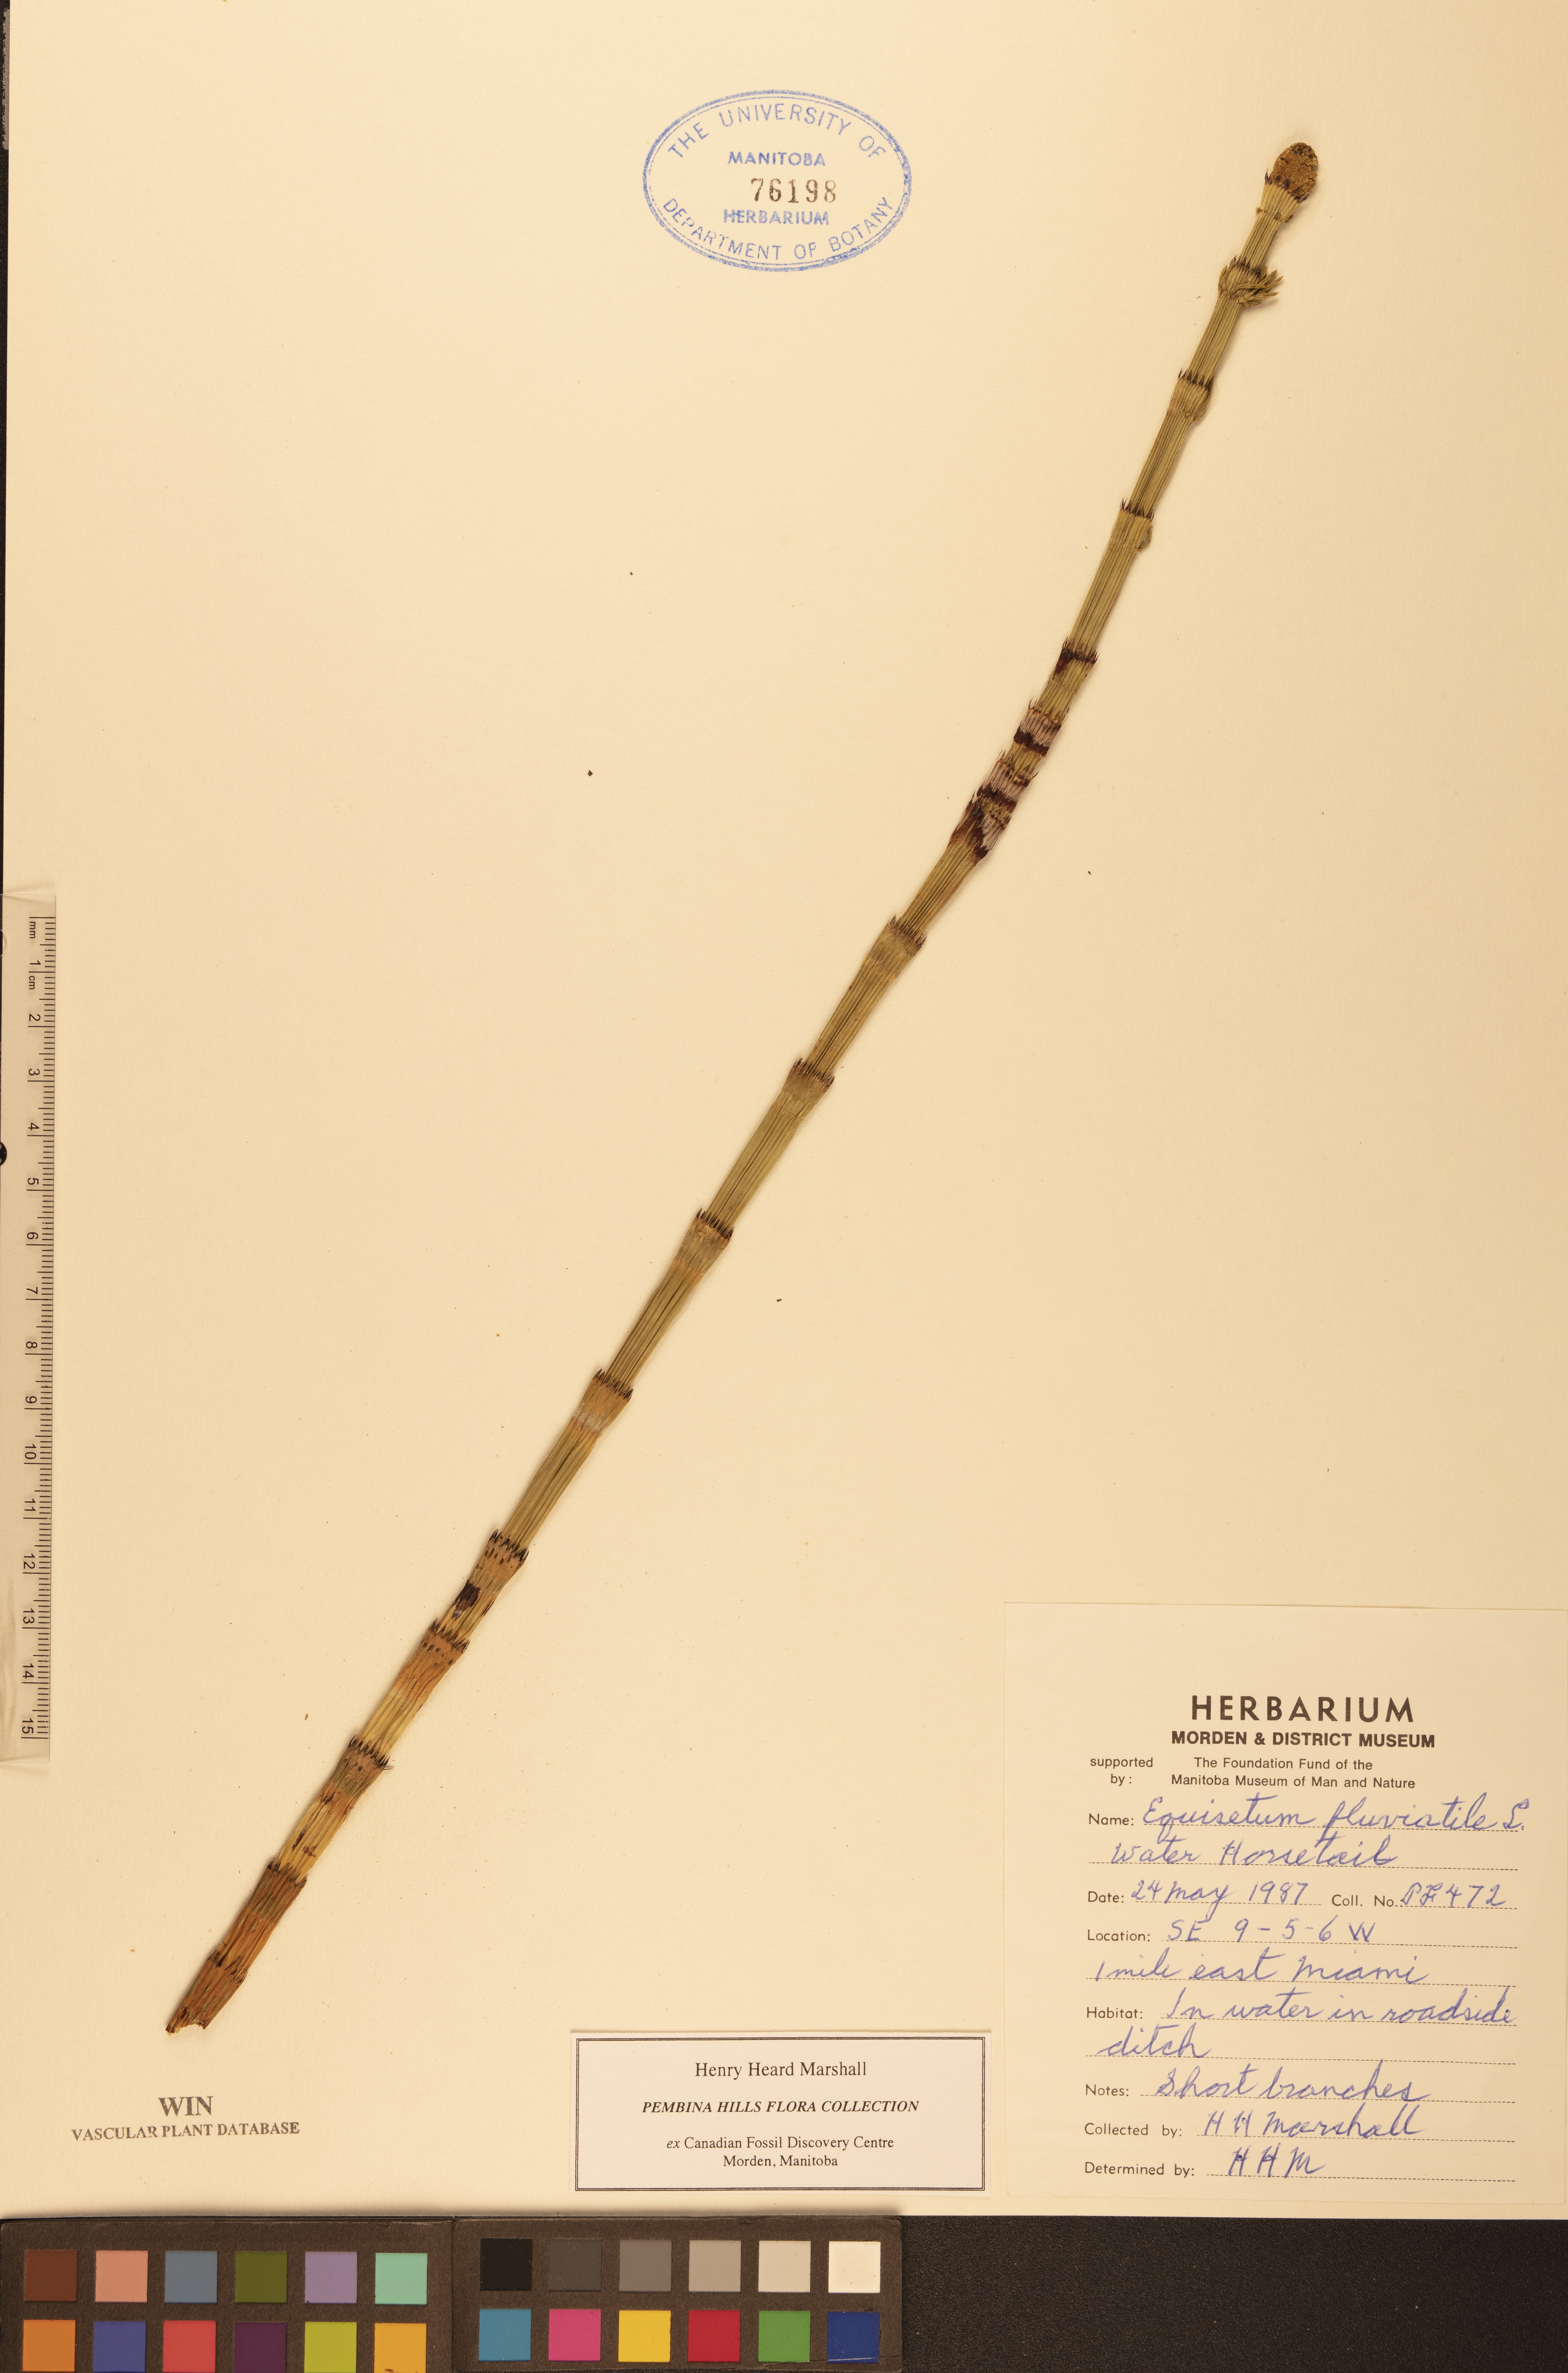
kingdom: Plantae
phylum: Tracheophyta
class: Polypodiopsida
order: Equisetales
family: Equisetaceae
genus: Equisetum
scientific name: Equisetum fluviatile
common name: Water horsetail
